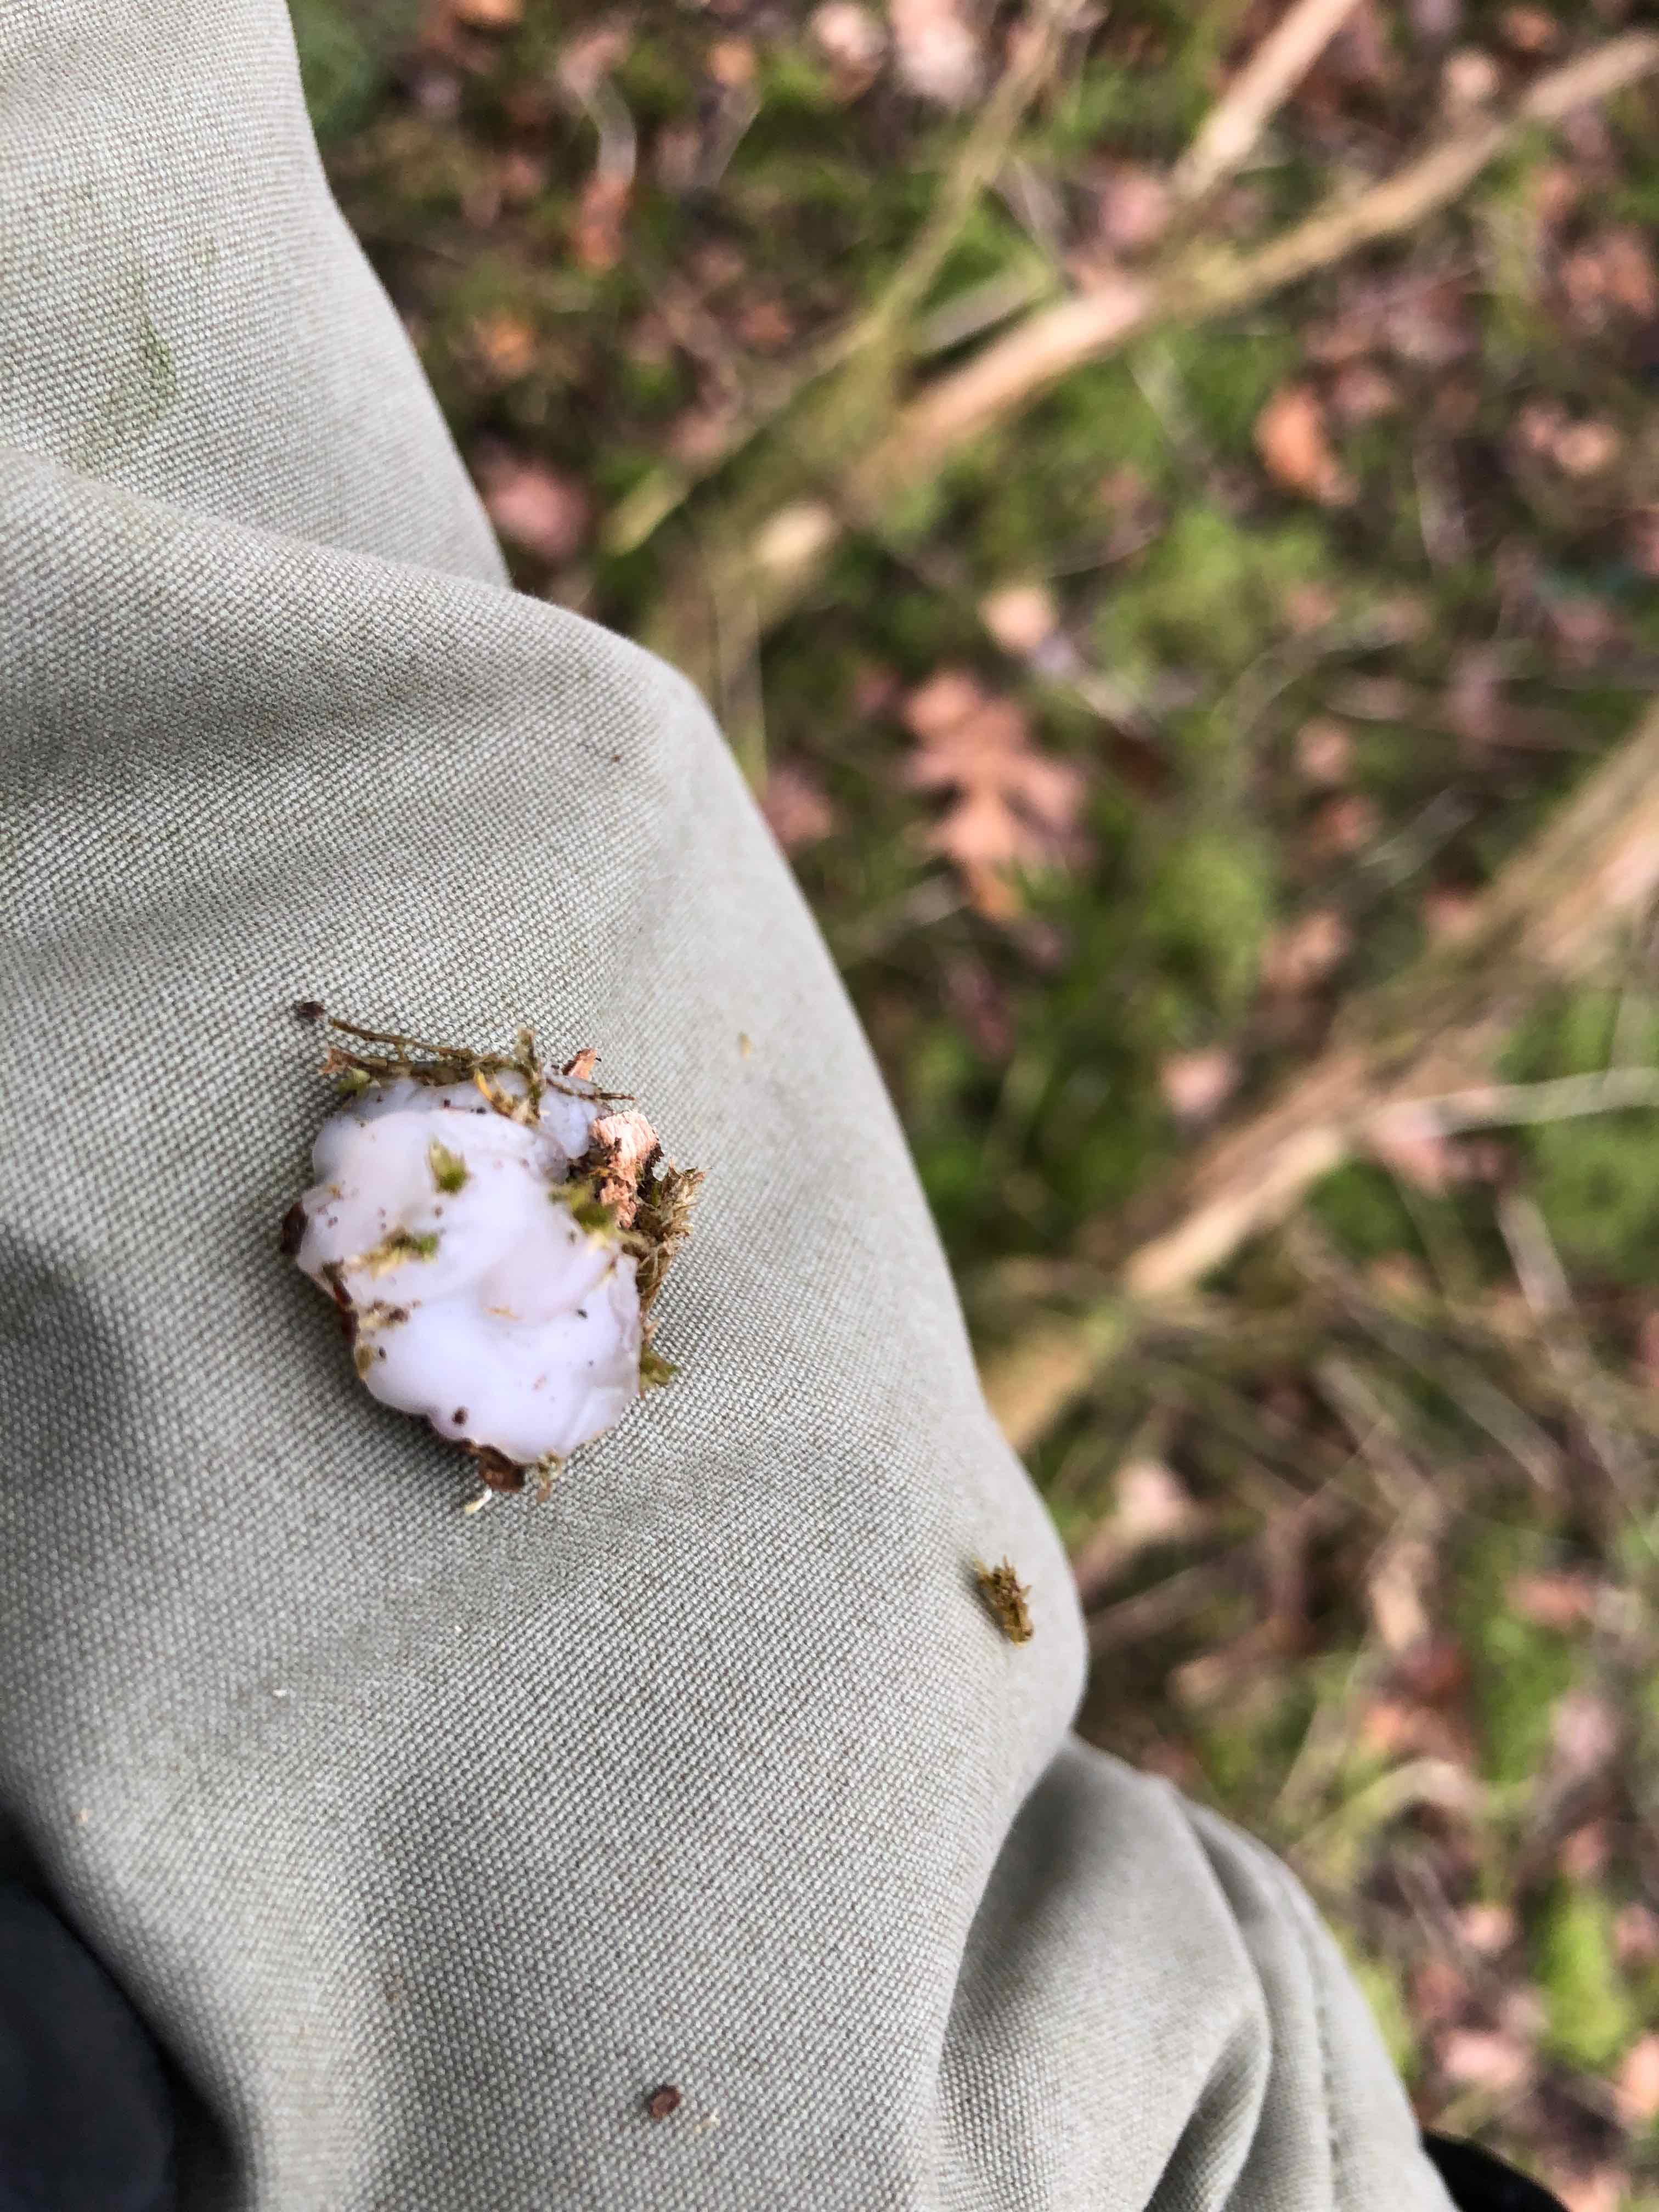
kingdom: Fungi
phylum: Basidiomycota
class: Agaricomycetes
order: Auriculariales
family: Auriculariaceae
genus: Exidia
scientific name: Exidia thuretiana
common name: hvidlig bævretop
